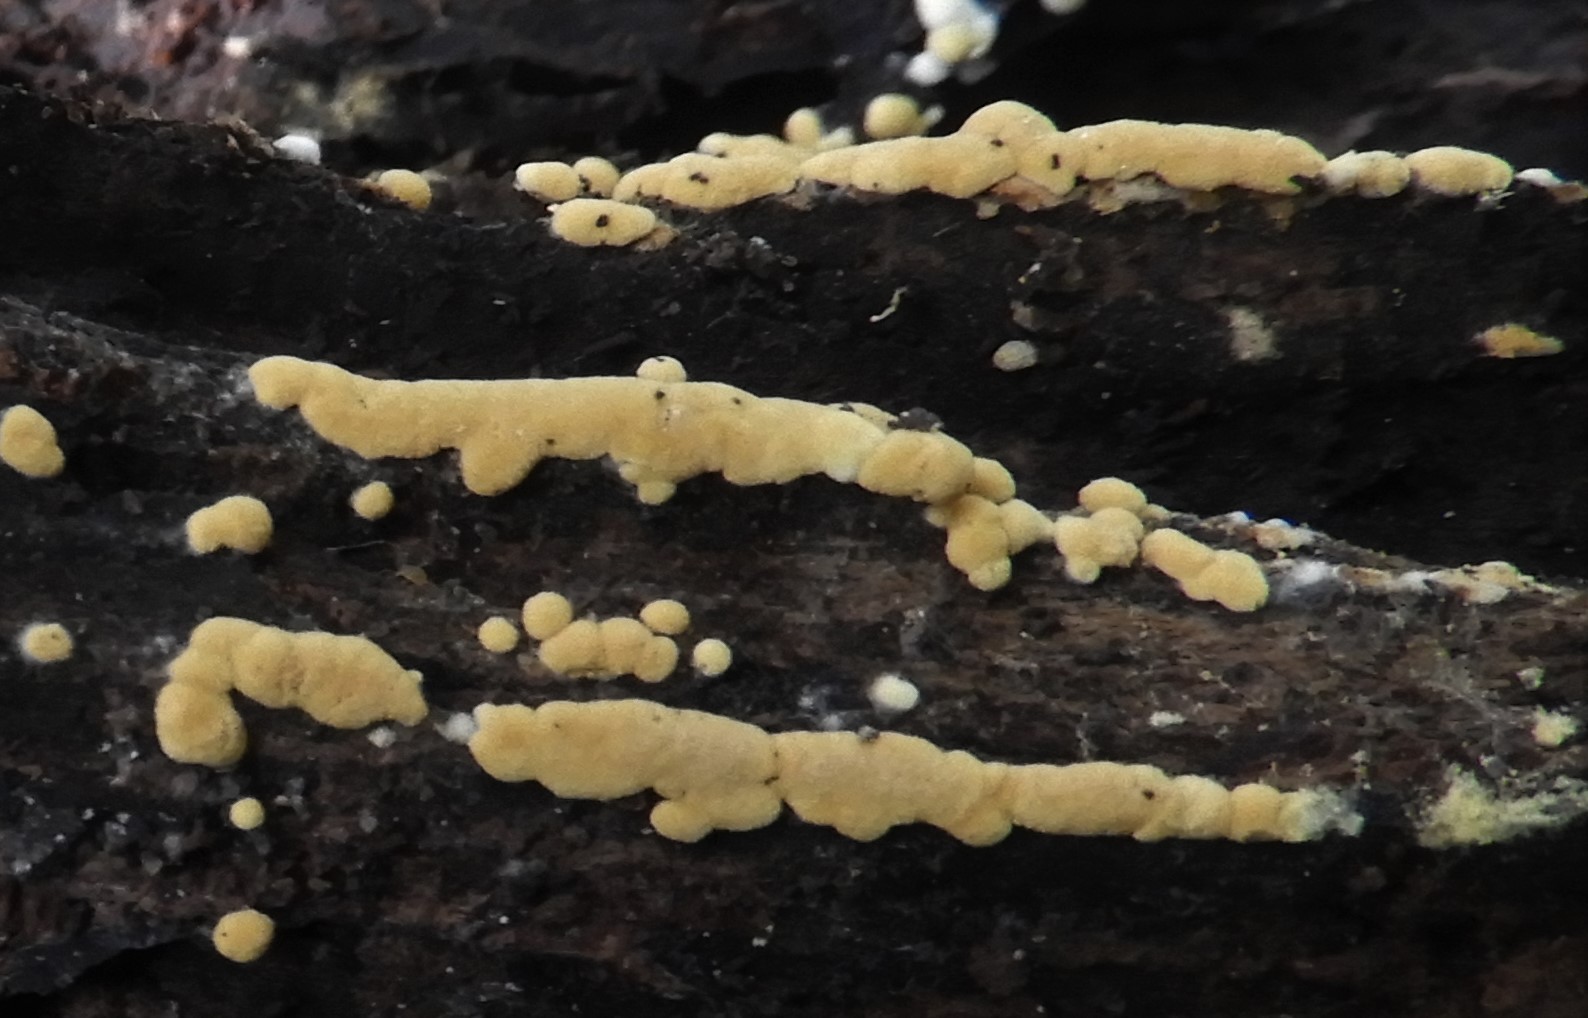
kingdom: Fungi
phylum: Basidiomycota
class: Agaricomycetes
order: Cantharellales
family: Botryobasidiaceae
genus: Botryobasidium
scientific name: Botryobasidium aureum
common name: gylden spindhinde
